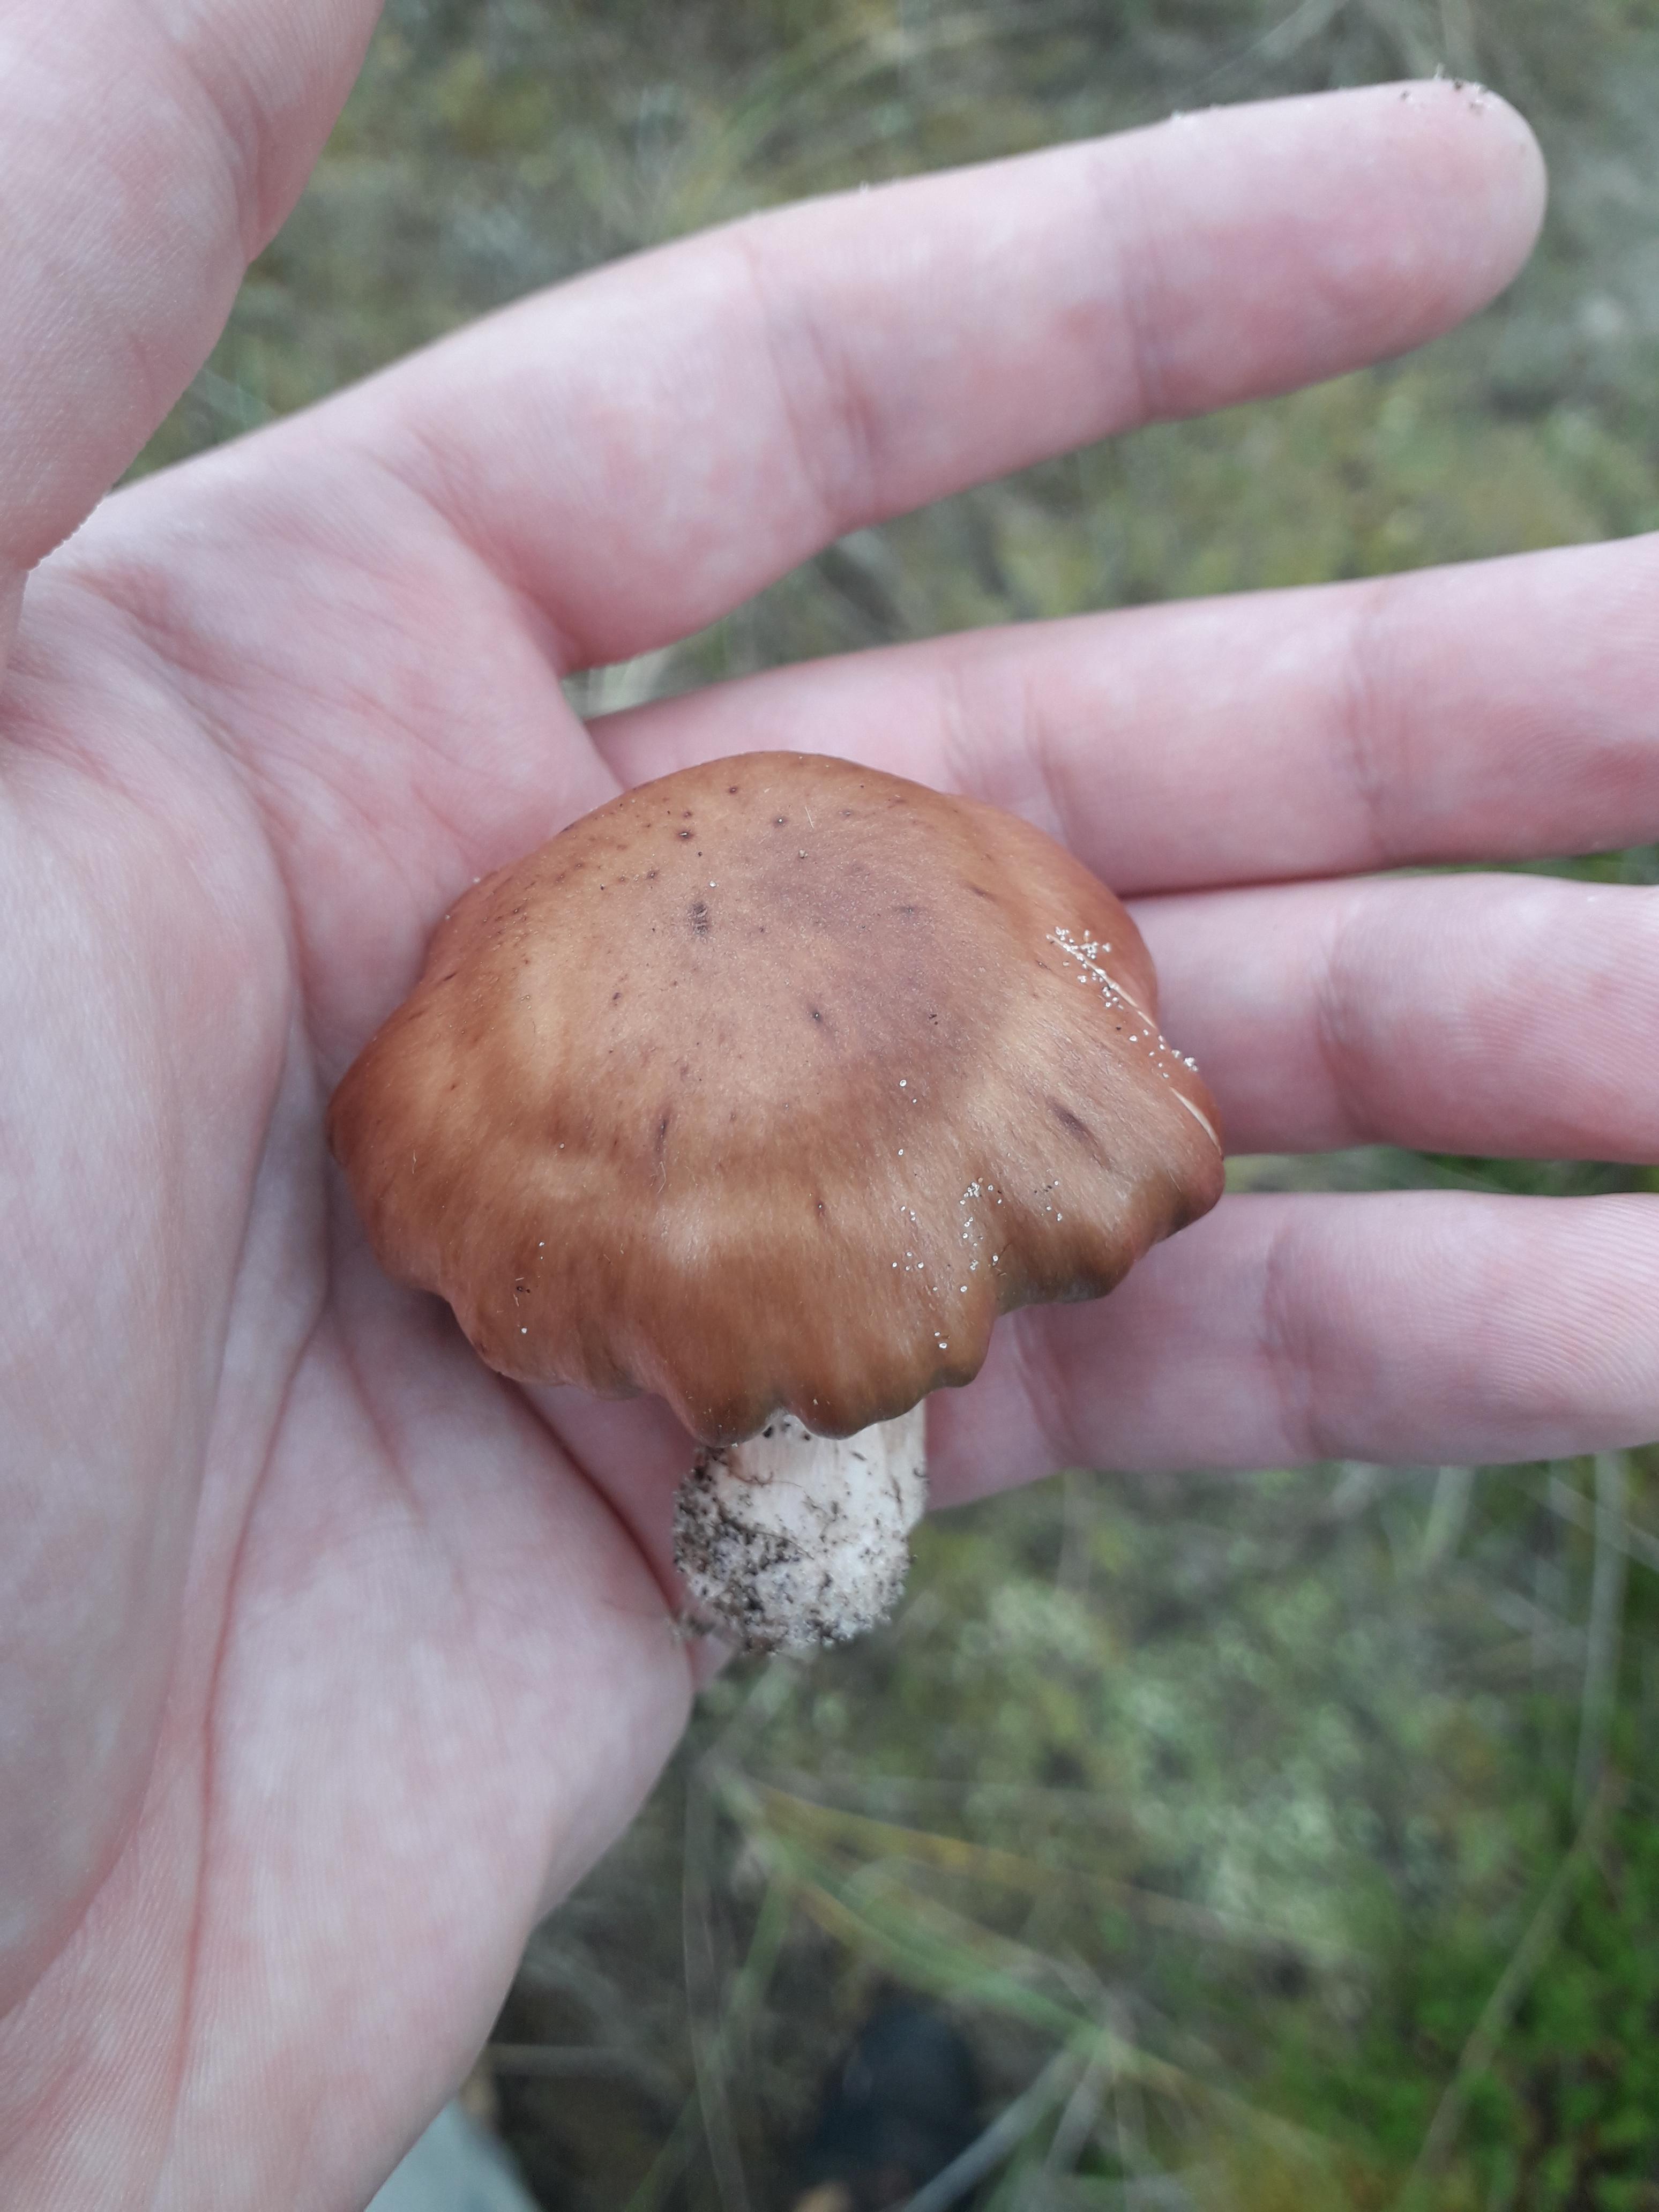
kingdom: Fungi
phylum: Basidiomycota
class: Agaricomycetes
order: Agaricales
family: Cortinariaceae
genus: Cortinarius
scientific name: Cortinarius saturninus
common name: brunviolet slørhat
